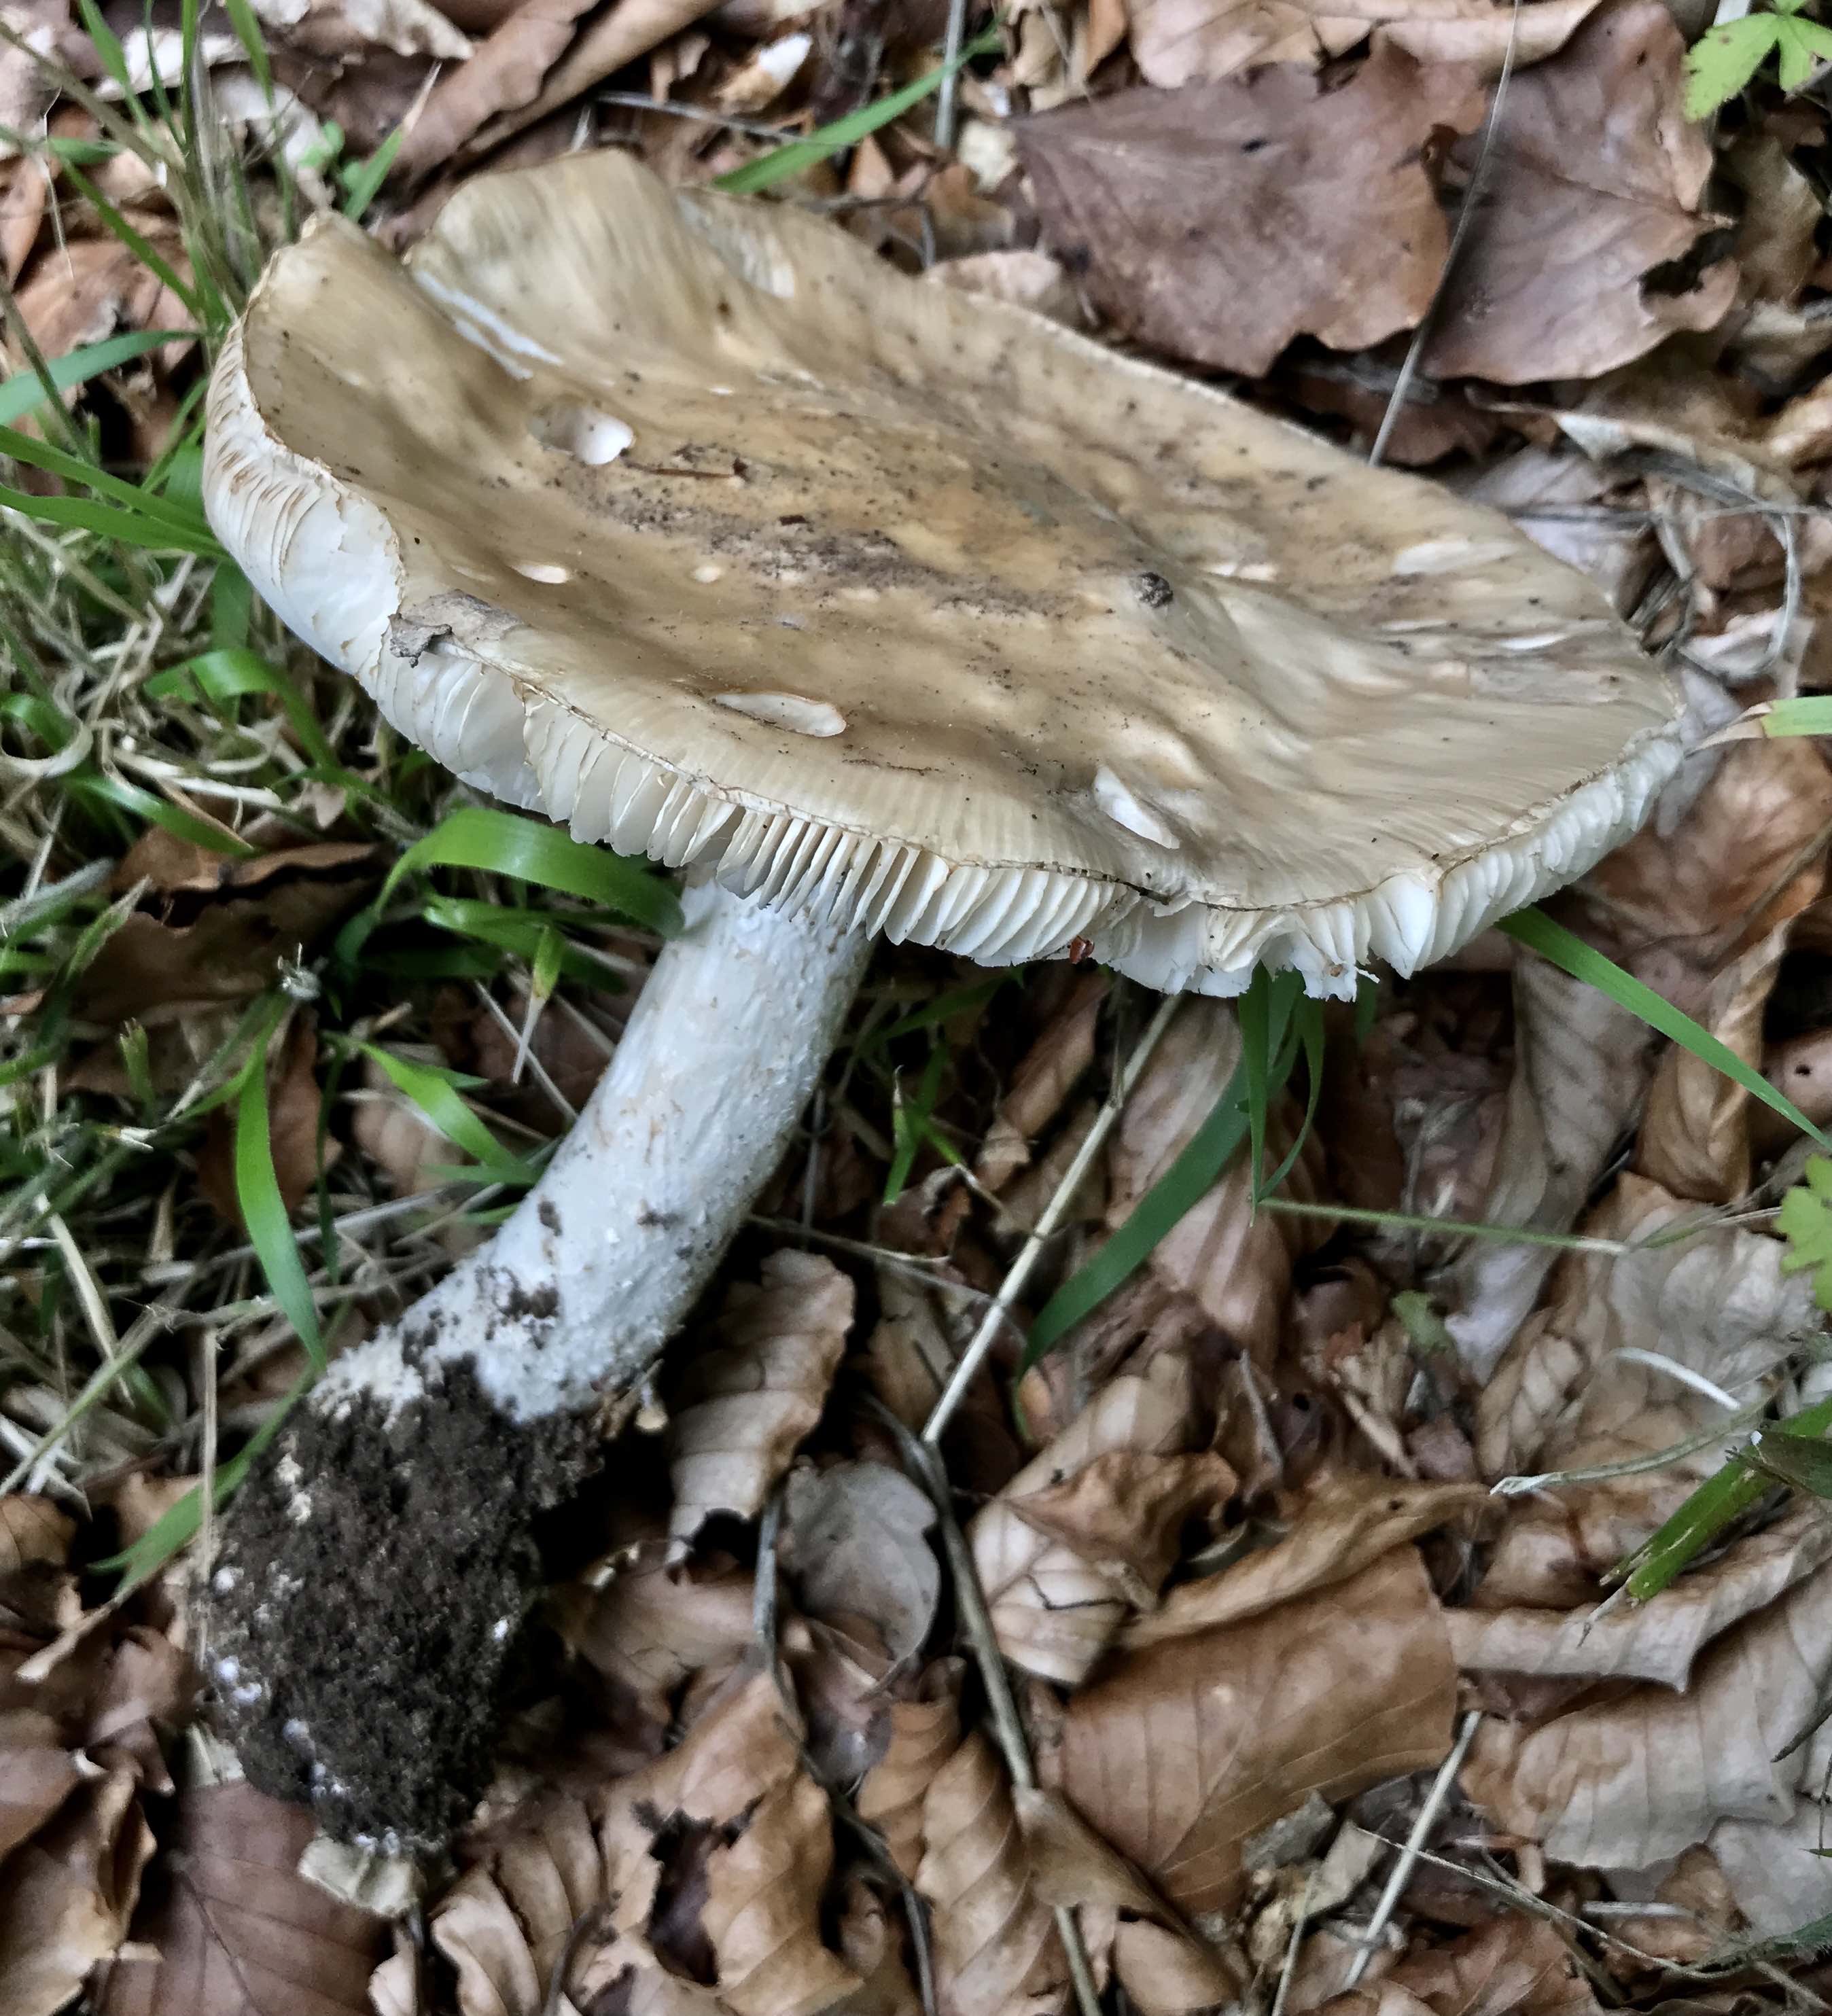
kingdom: Fungi
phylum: Basidiomycota
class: Agaricomycetes
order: Agaricales
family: Amanitaceae
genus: Amanita
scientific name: Amanita
